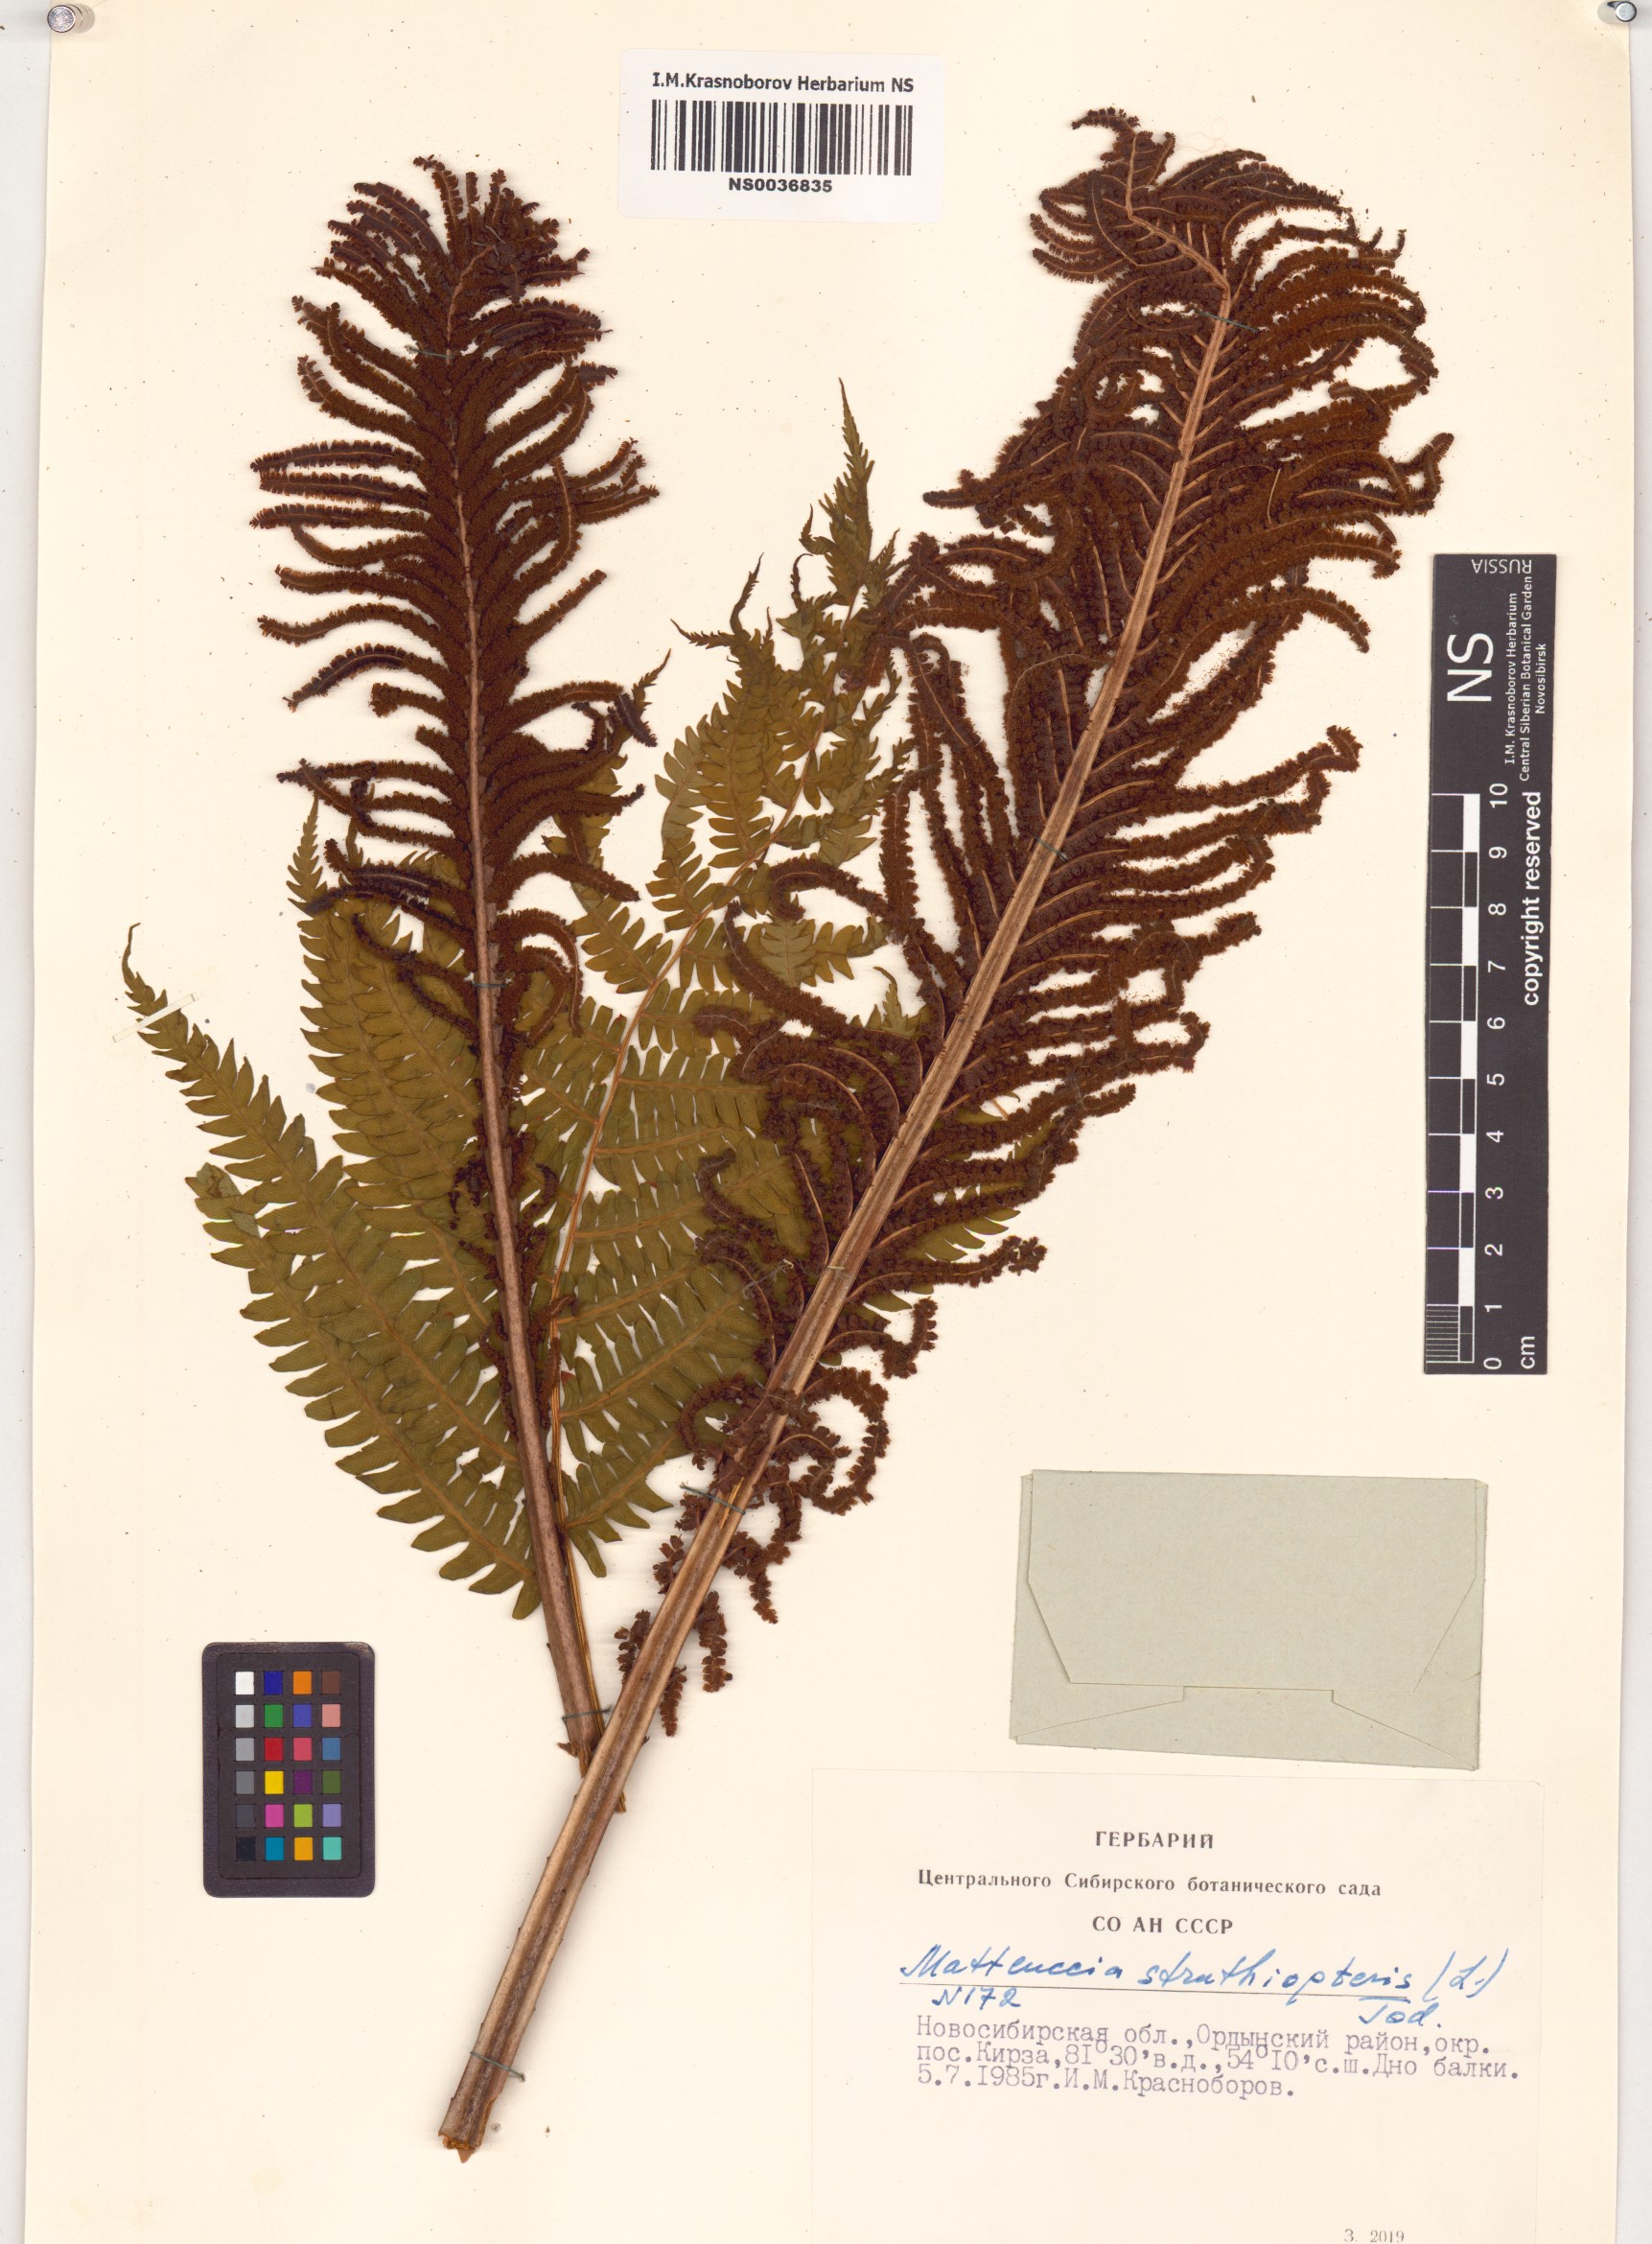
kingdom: Plantae
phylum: Tracheophyta
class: Polypodiopsida
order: Polypodiales
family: Onocleaceae
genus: Matteuccia
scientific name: Matteuccia struthiopteris
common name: Ostrich fern
